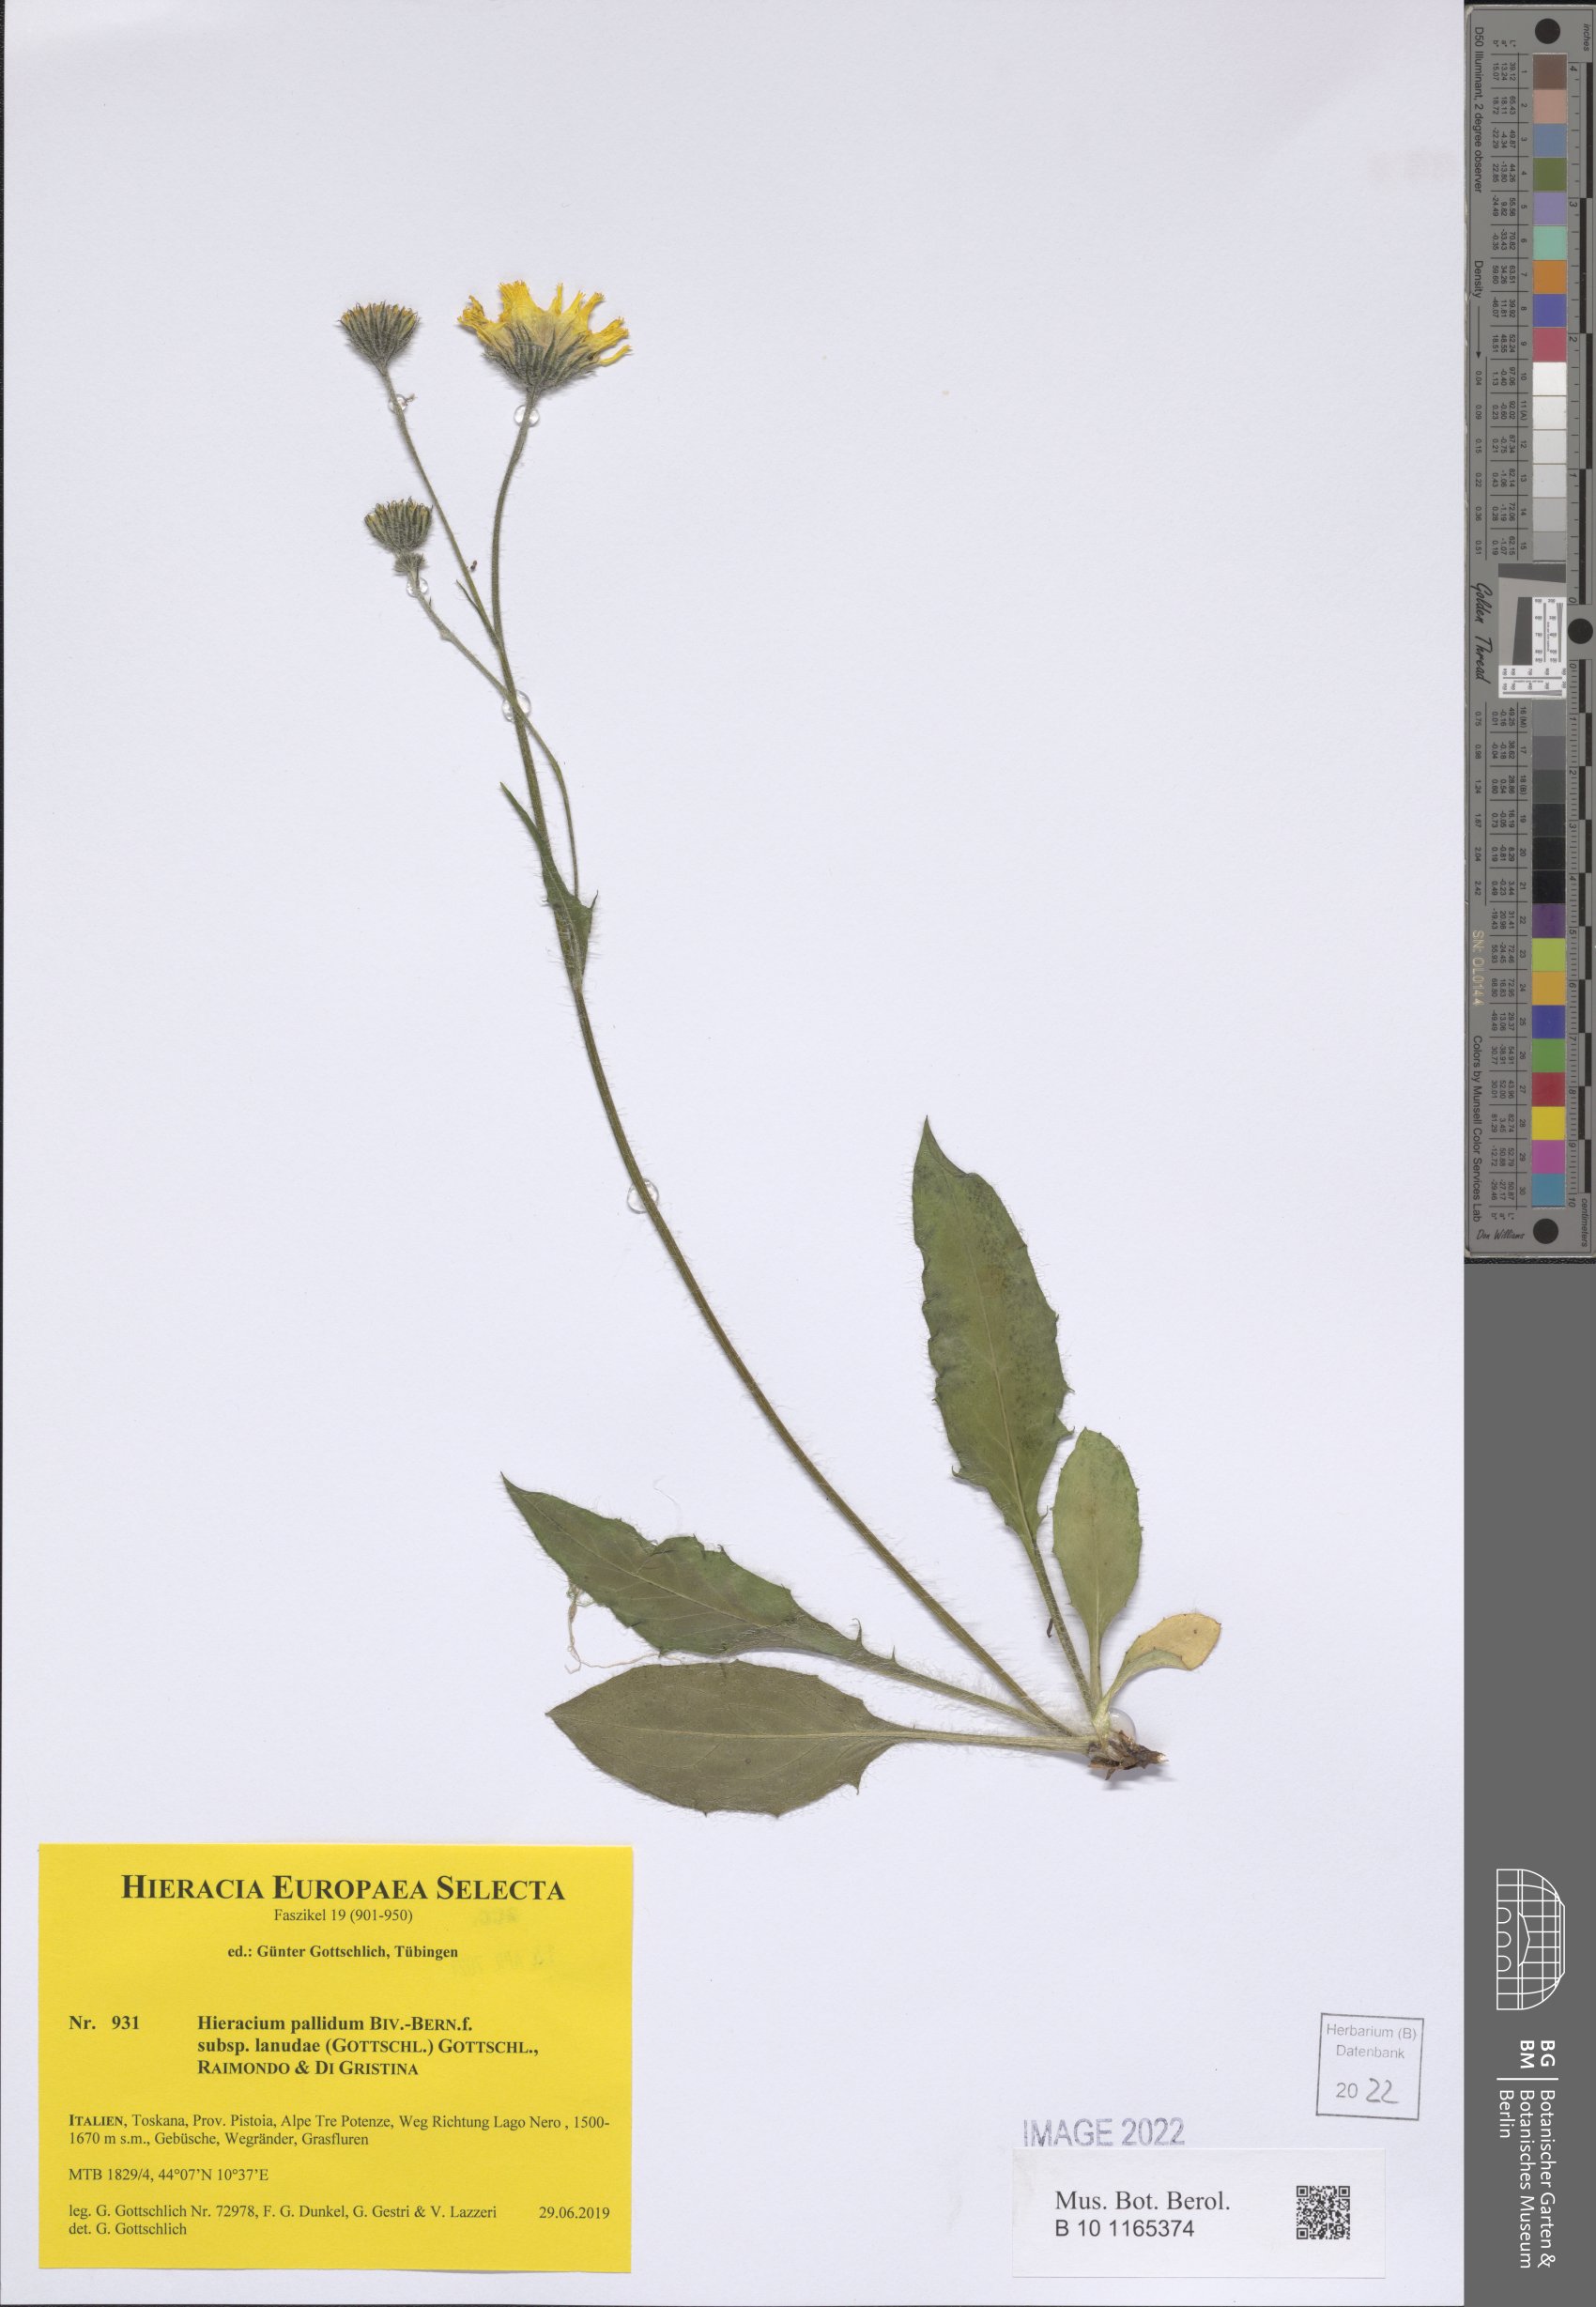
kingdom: Plantae
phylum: Tracheophyta
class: Magnoliopsida
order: Asterales
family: Asteraceae
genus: Hieracium
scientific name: Hieracium pallidum
